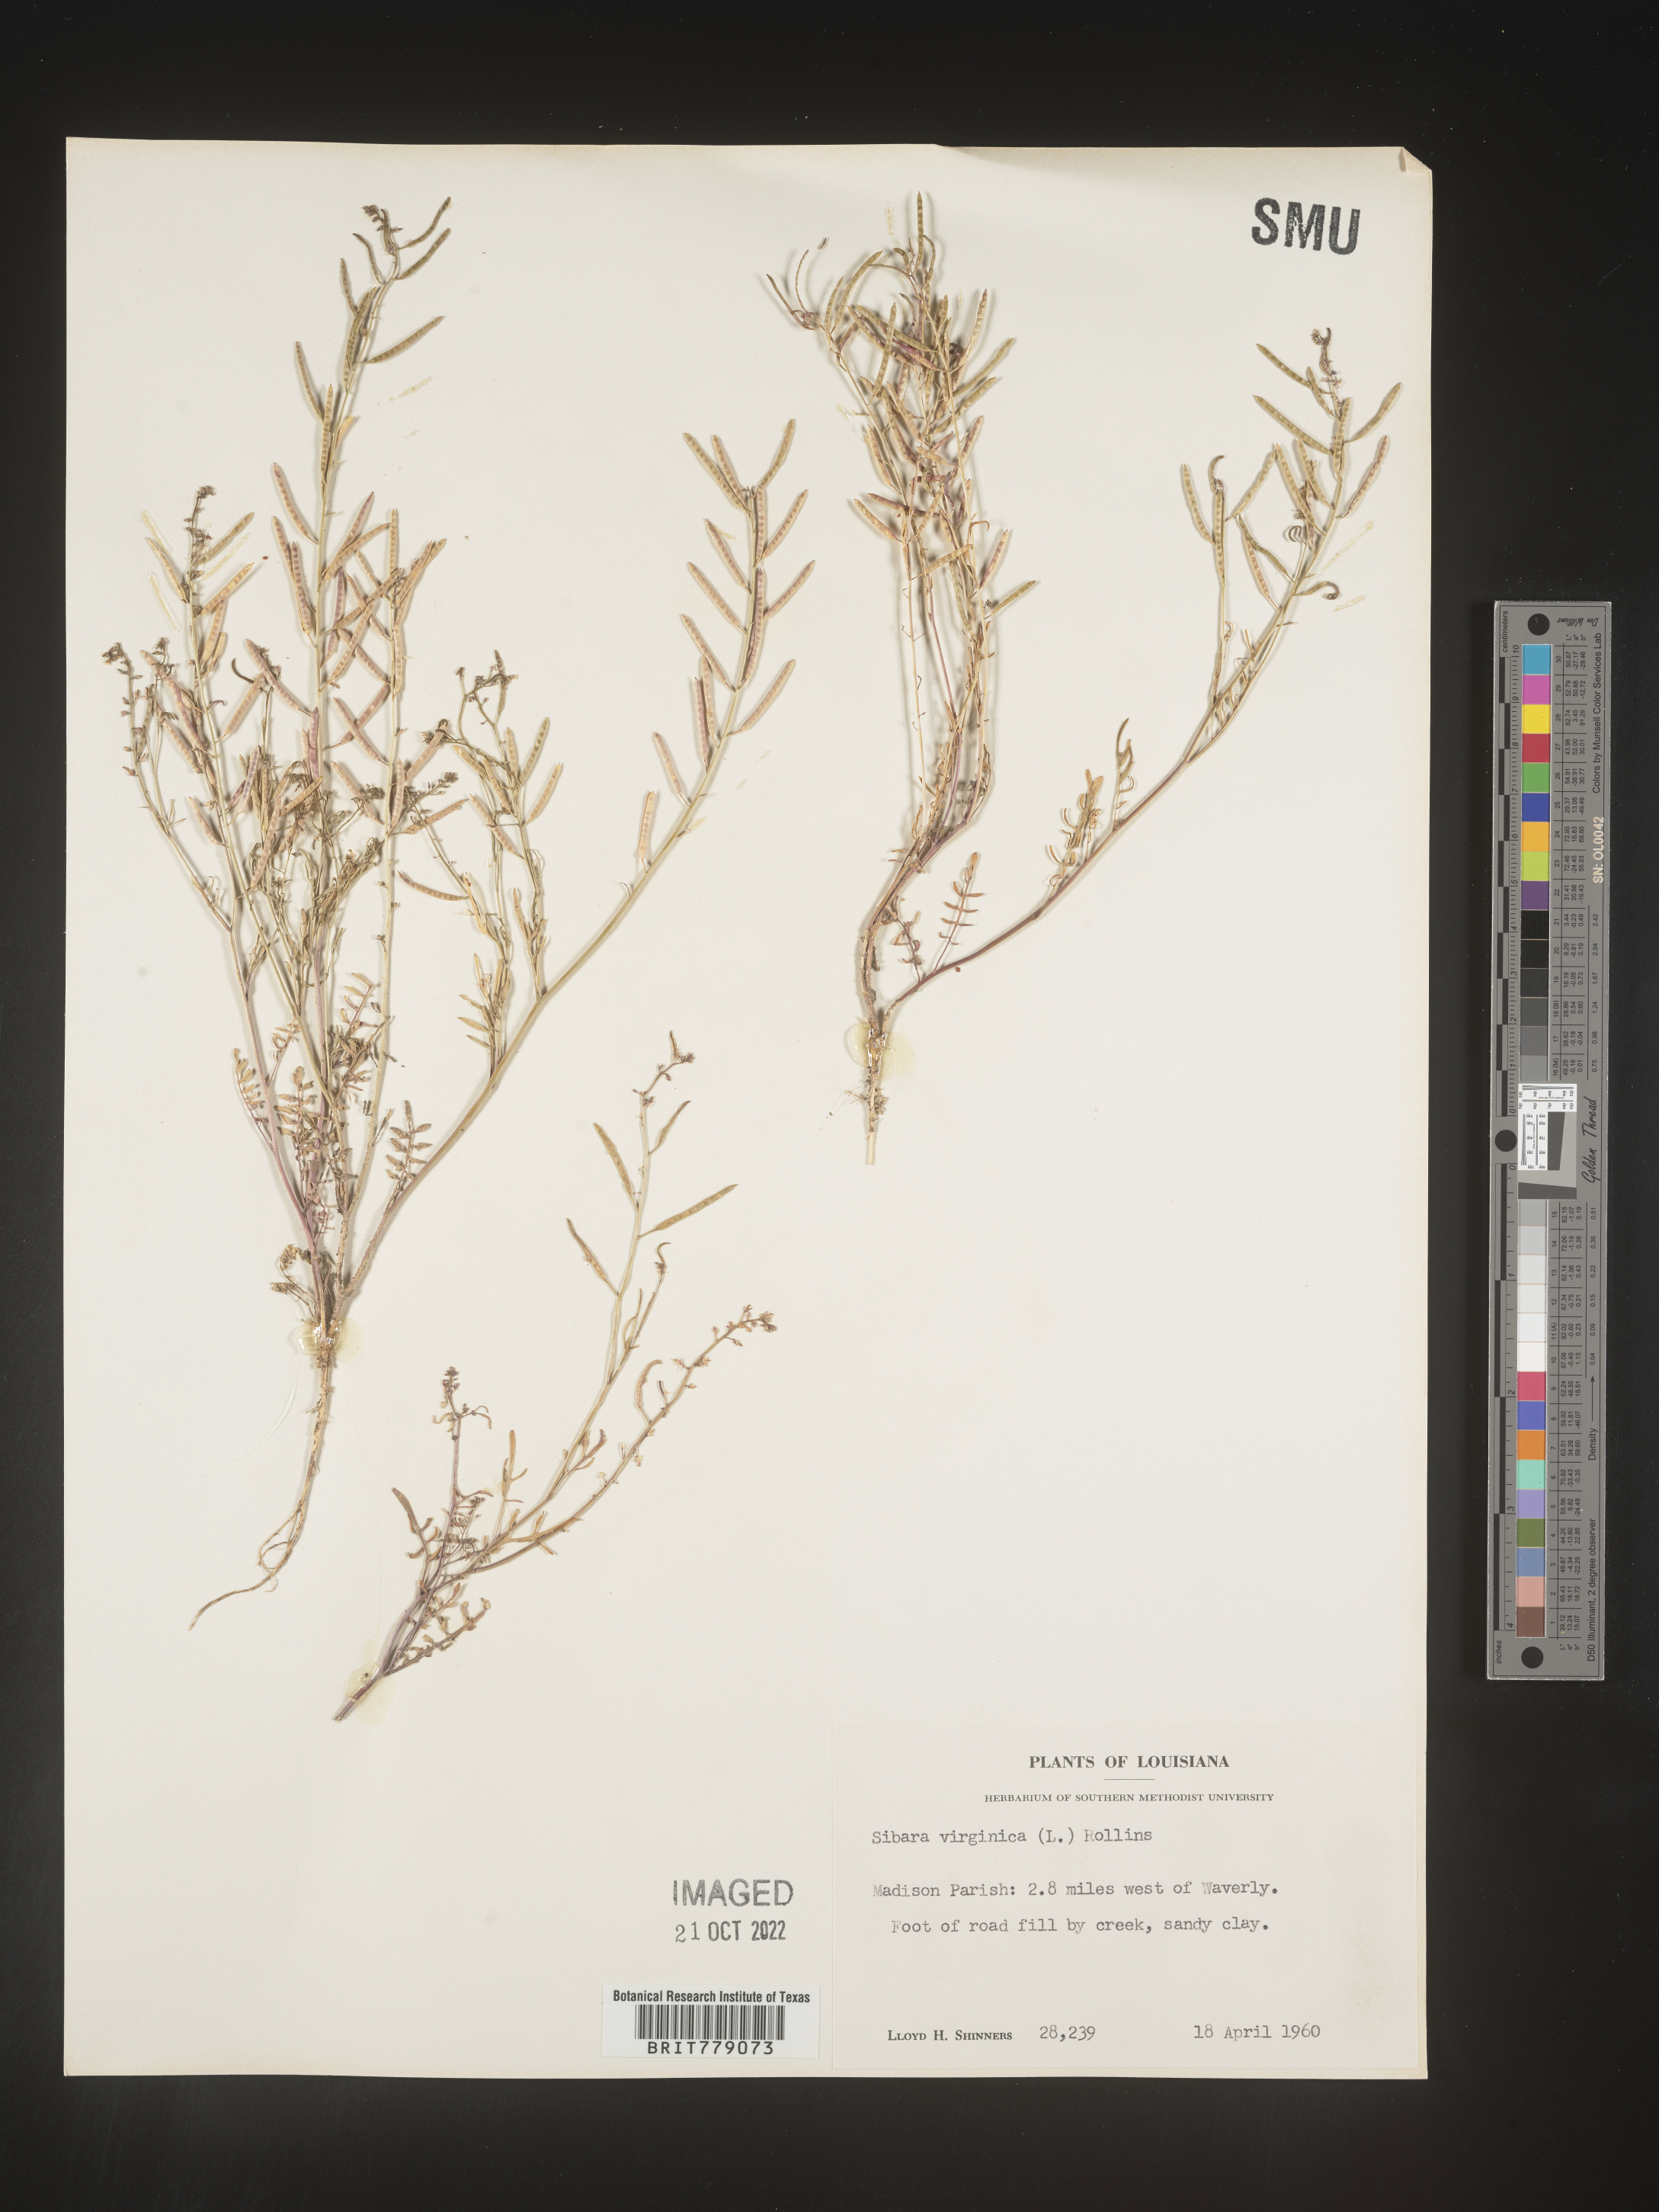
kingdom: Plantae
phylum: Tracheophyta
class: Magnoliopsida
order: Brassicales
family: Brassicaceae
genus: Sibara
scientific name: Sibara
